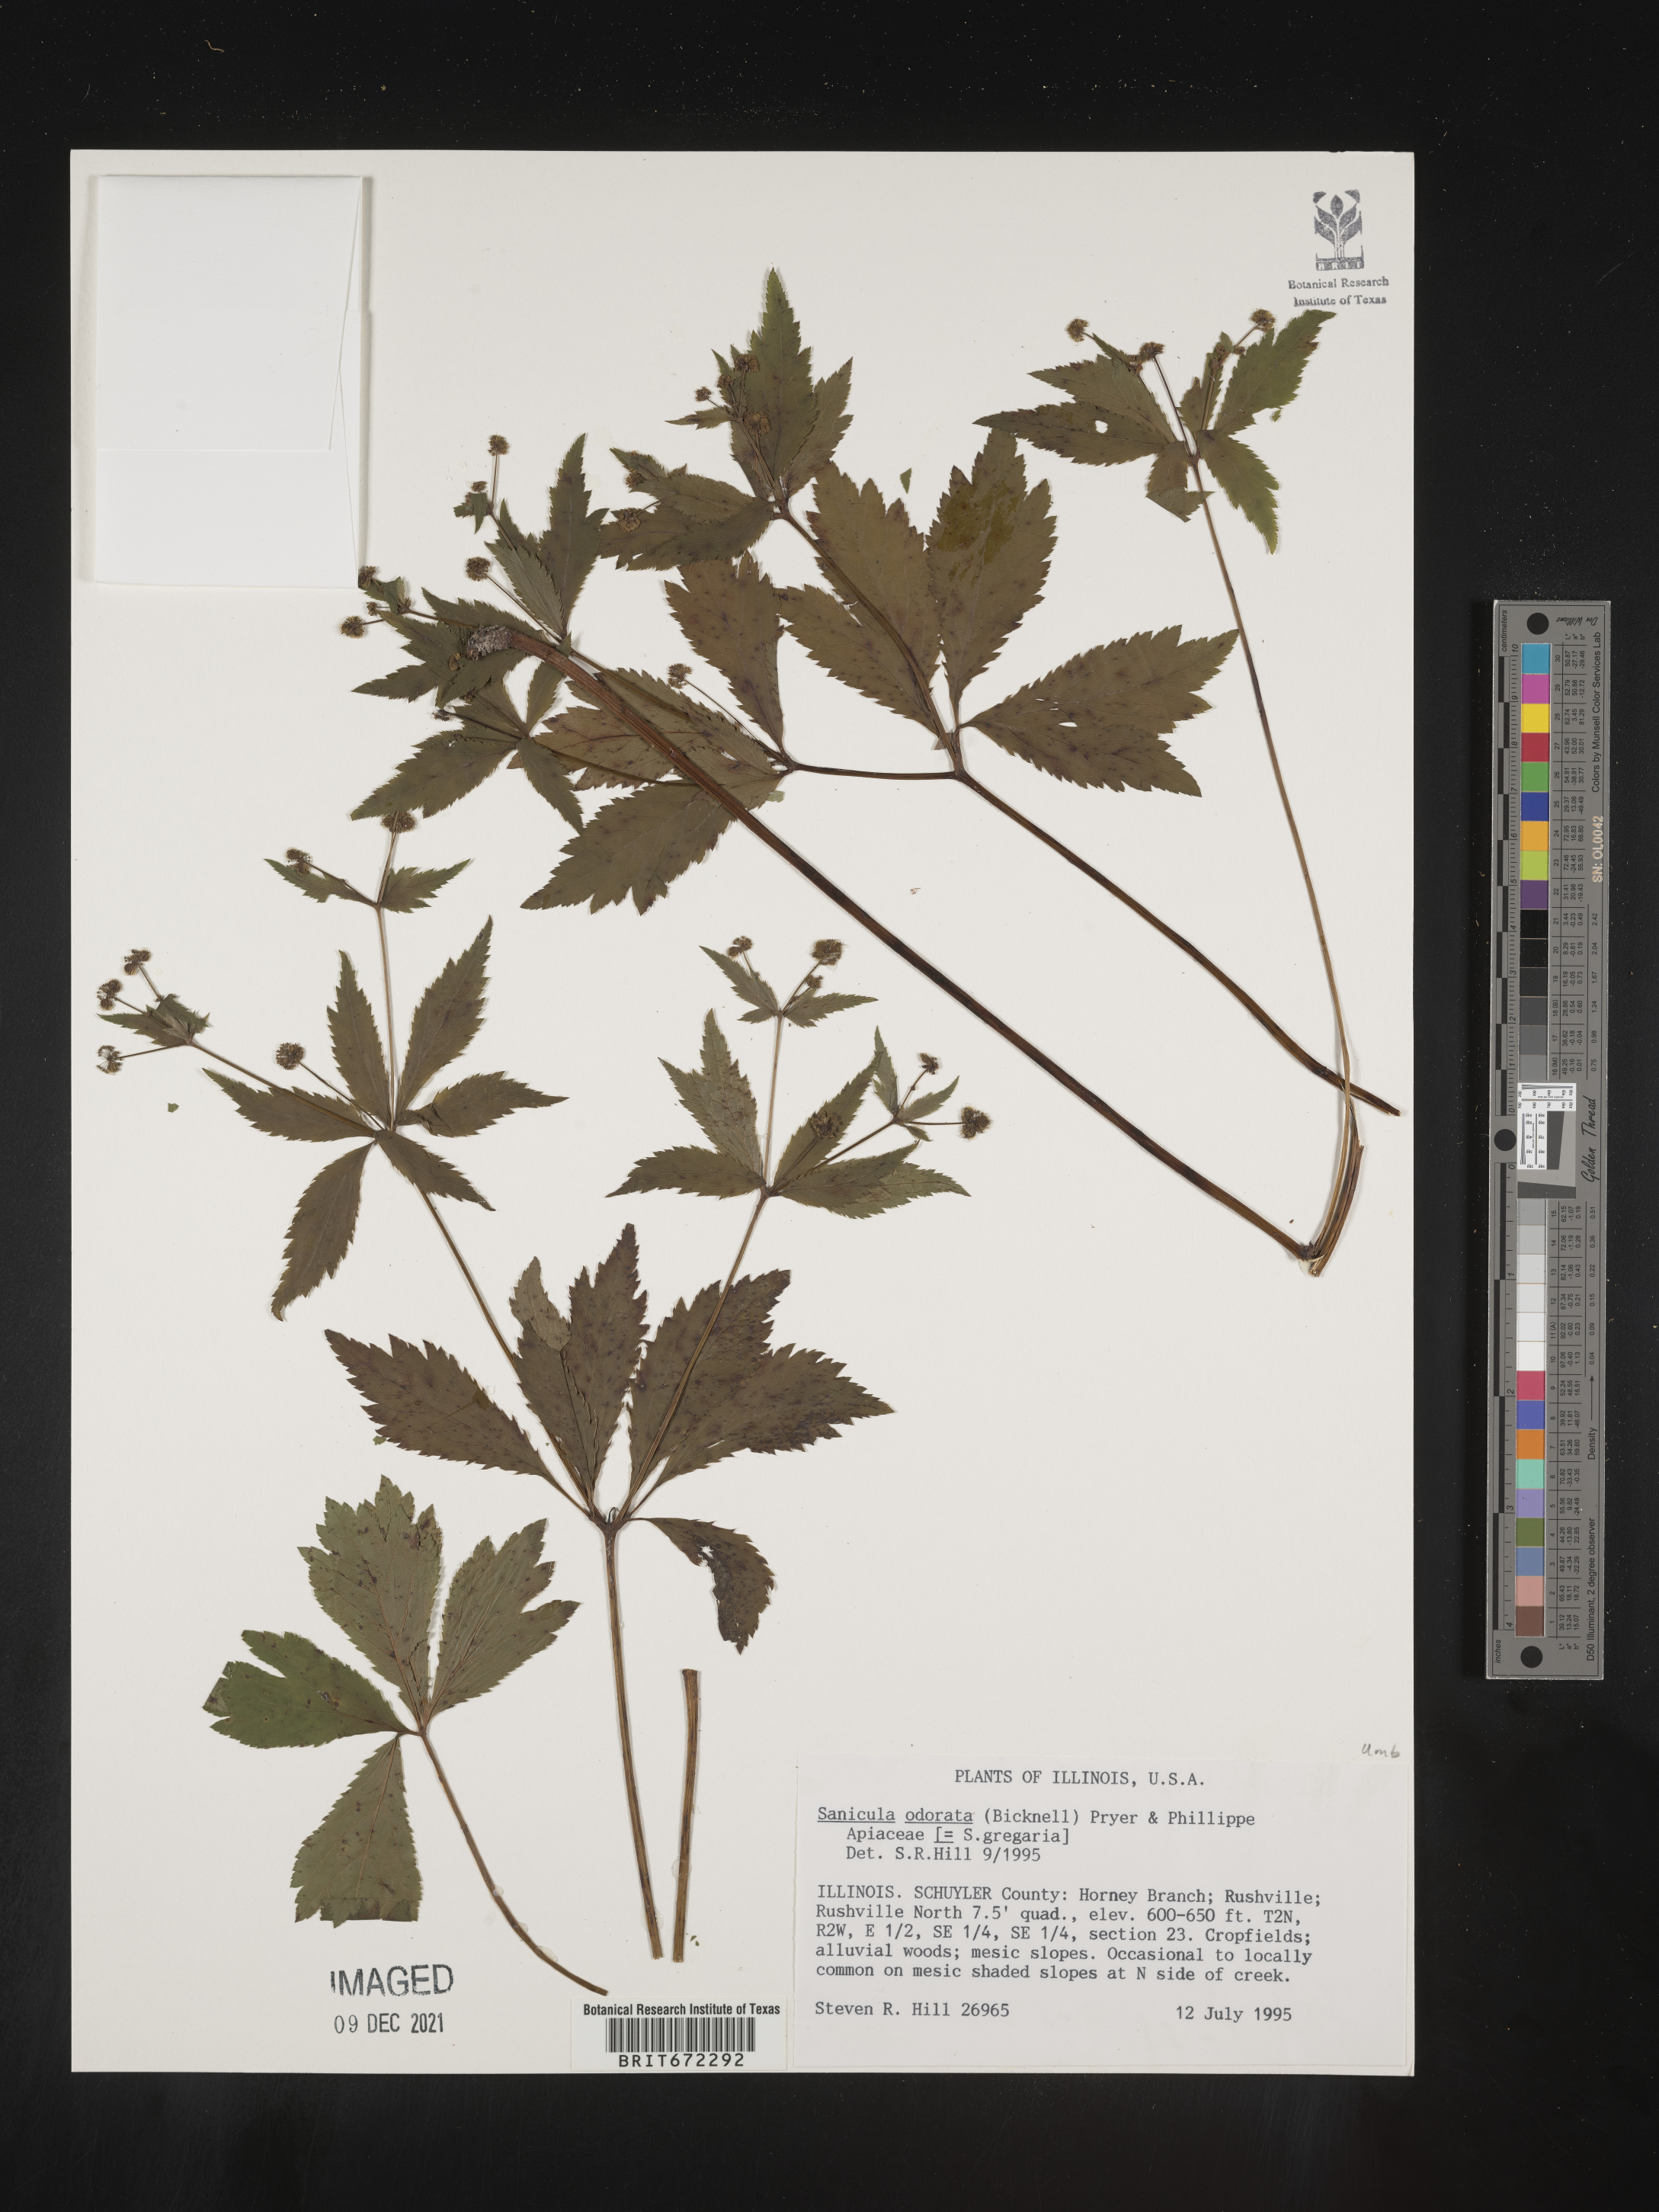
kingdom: Plantae
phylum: Tracheophyta
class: Magnoliopsida
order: Apiales
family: Apiaceae
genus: Sanicula
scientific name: Sanicula
